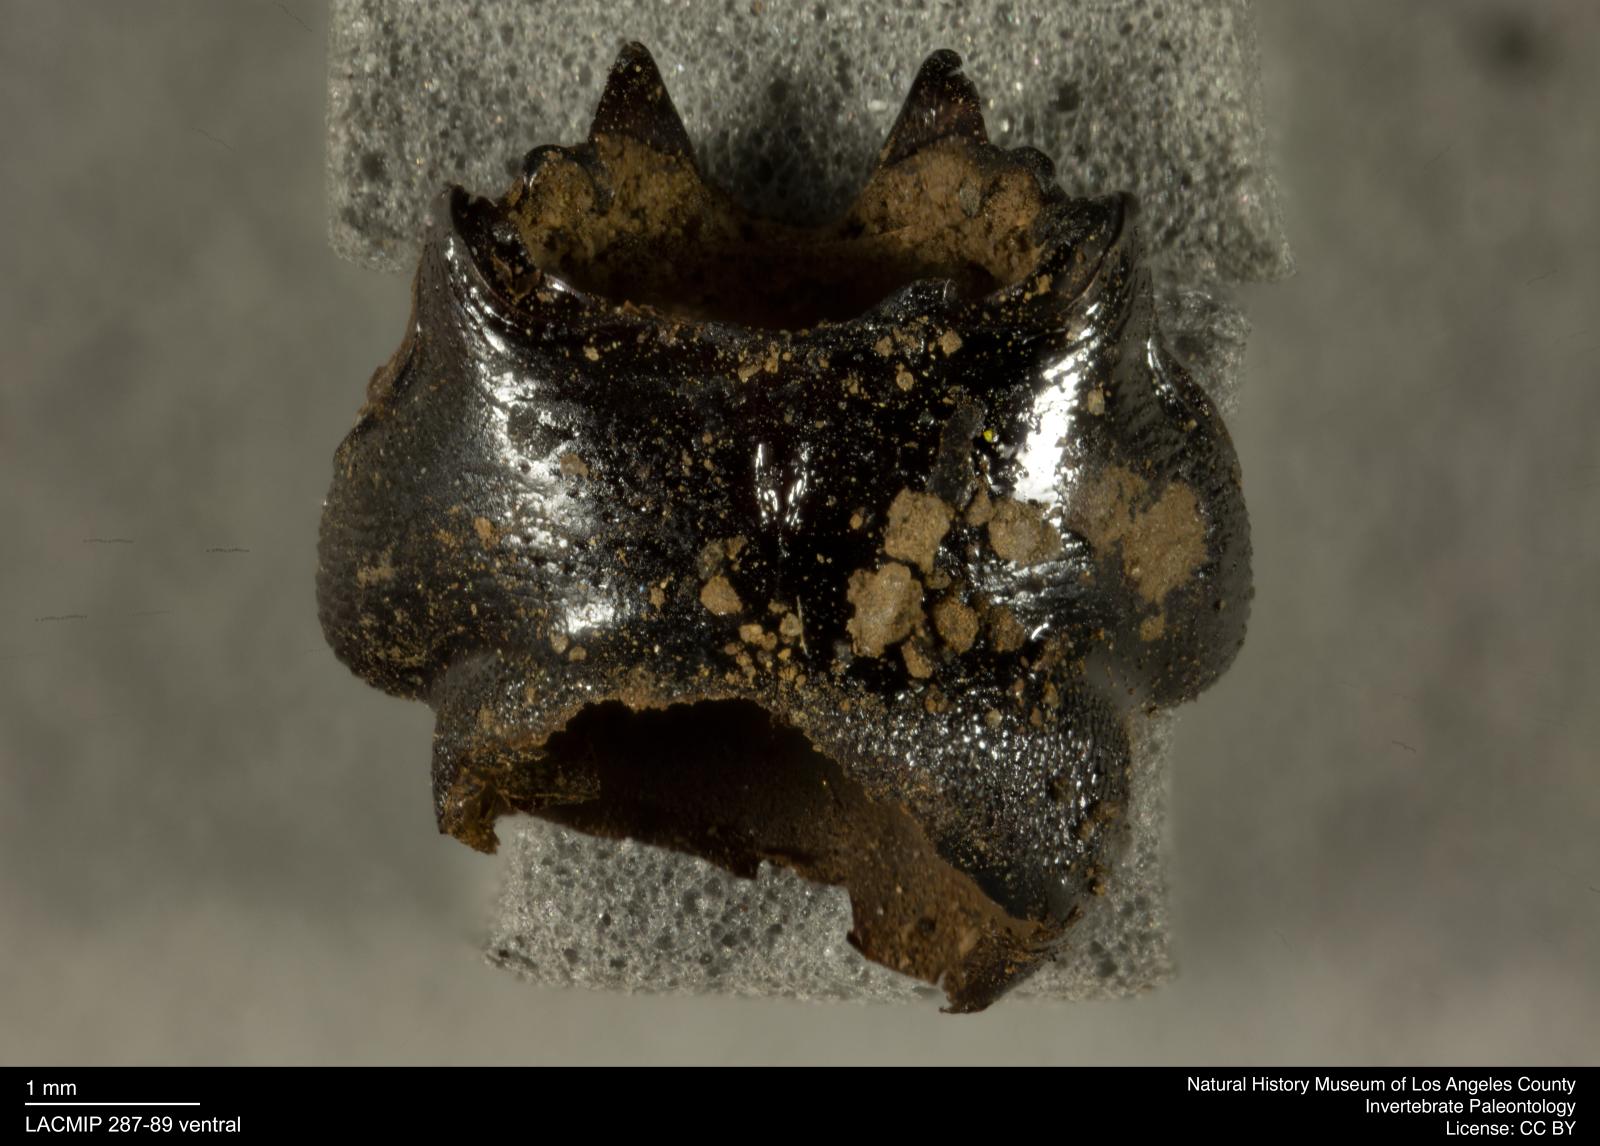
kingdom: Animalia
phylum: Arthropoda
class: Insecta
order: Coleoptera
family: Staphylinidae
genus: Nicrophorus
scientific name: Nicrophorus marginatus
